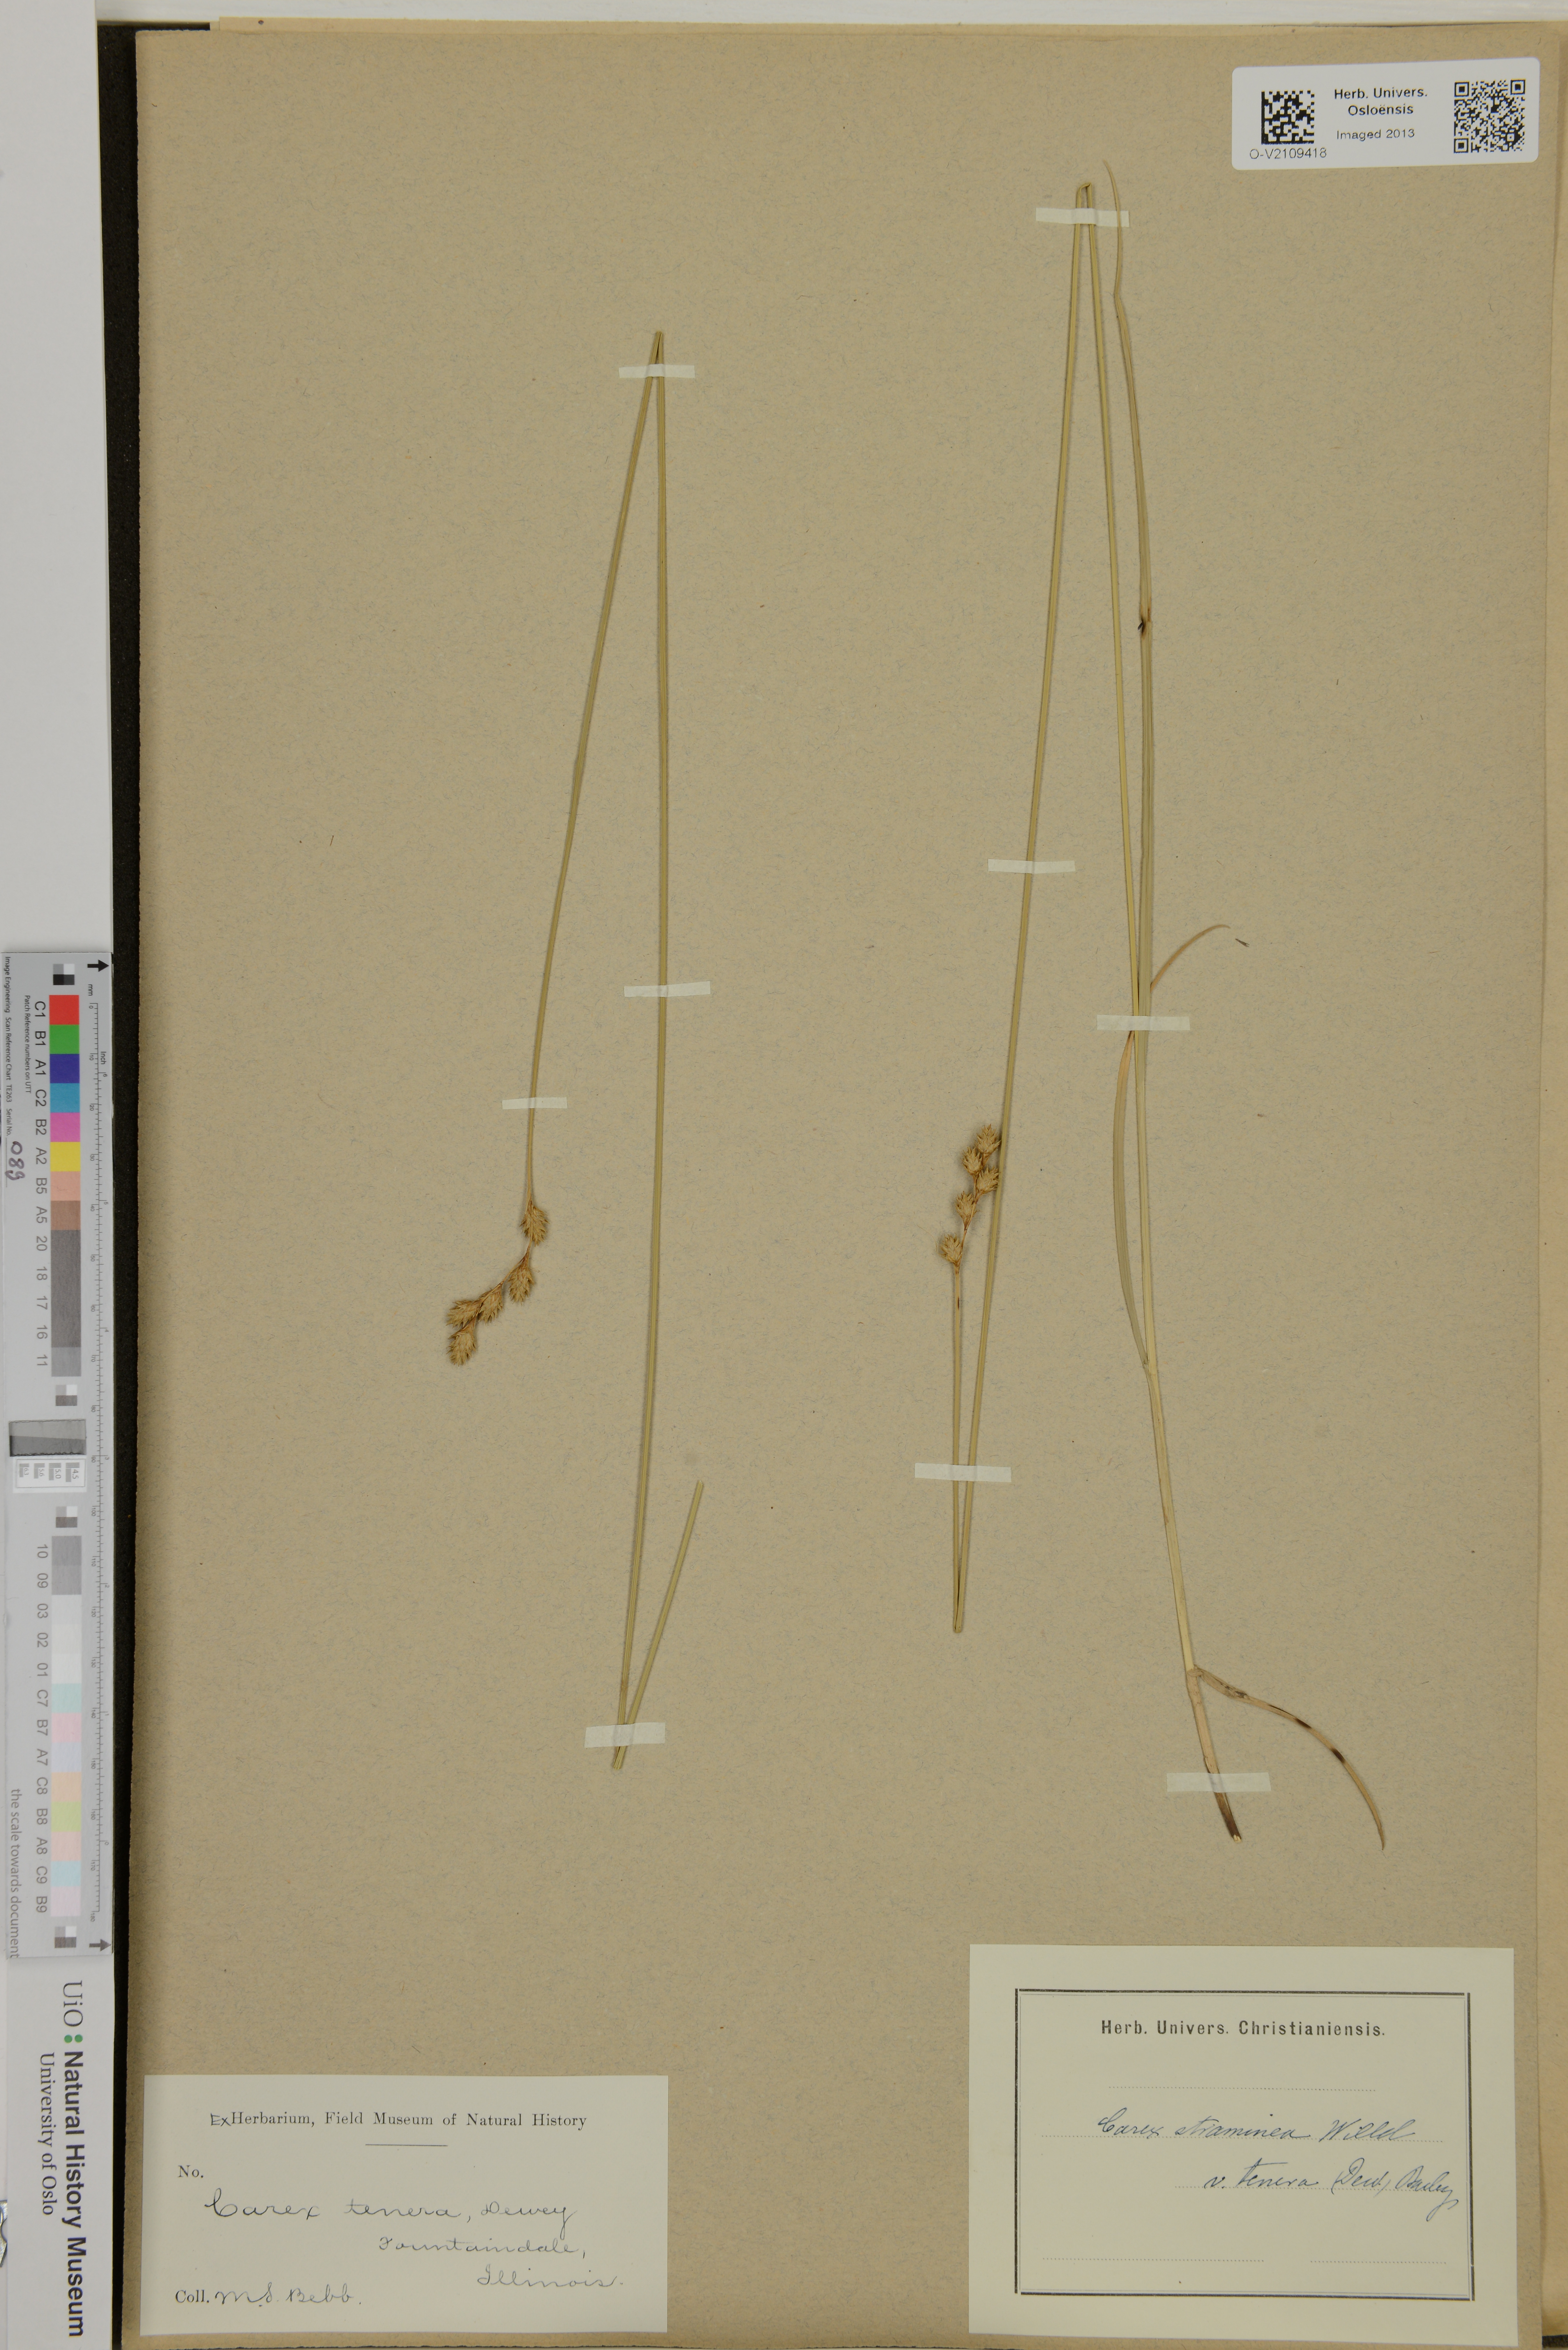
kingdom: Plantae
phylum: Tracheophyta
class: Liliopsida
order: Poales
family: Cyperaceae
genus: Carex
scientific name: Carex straminea
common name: Eastern straw sedge
